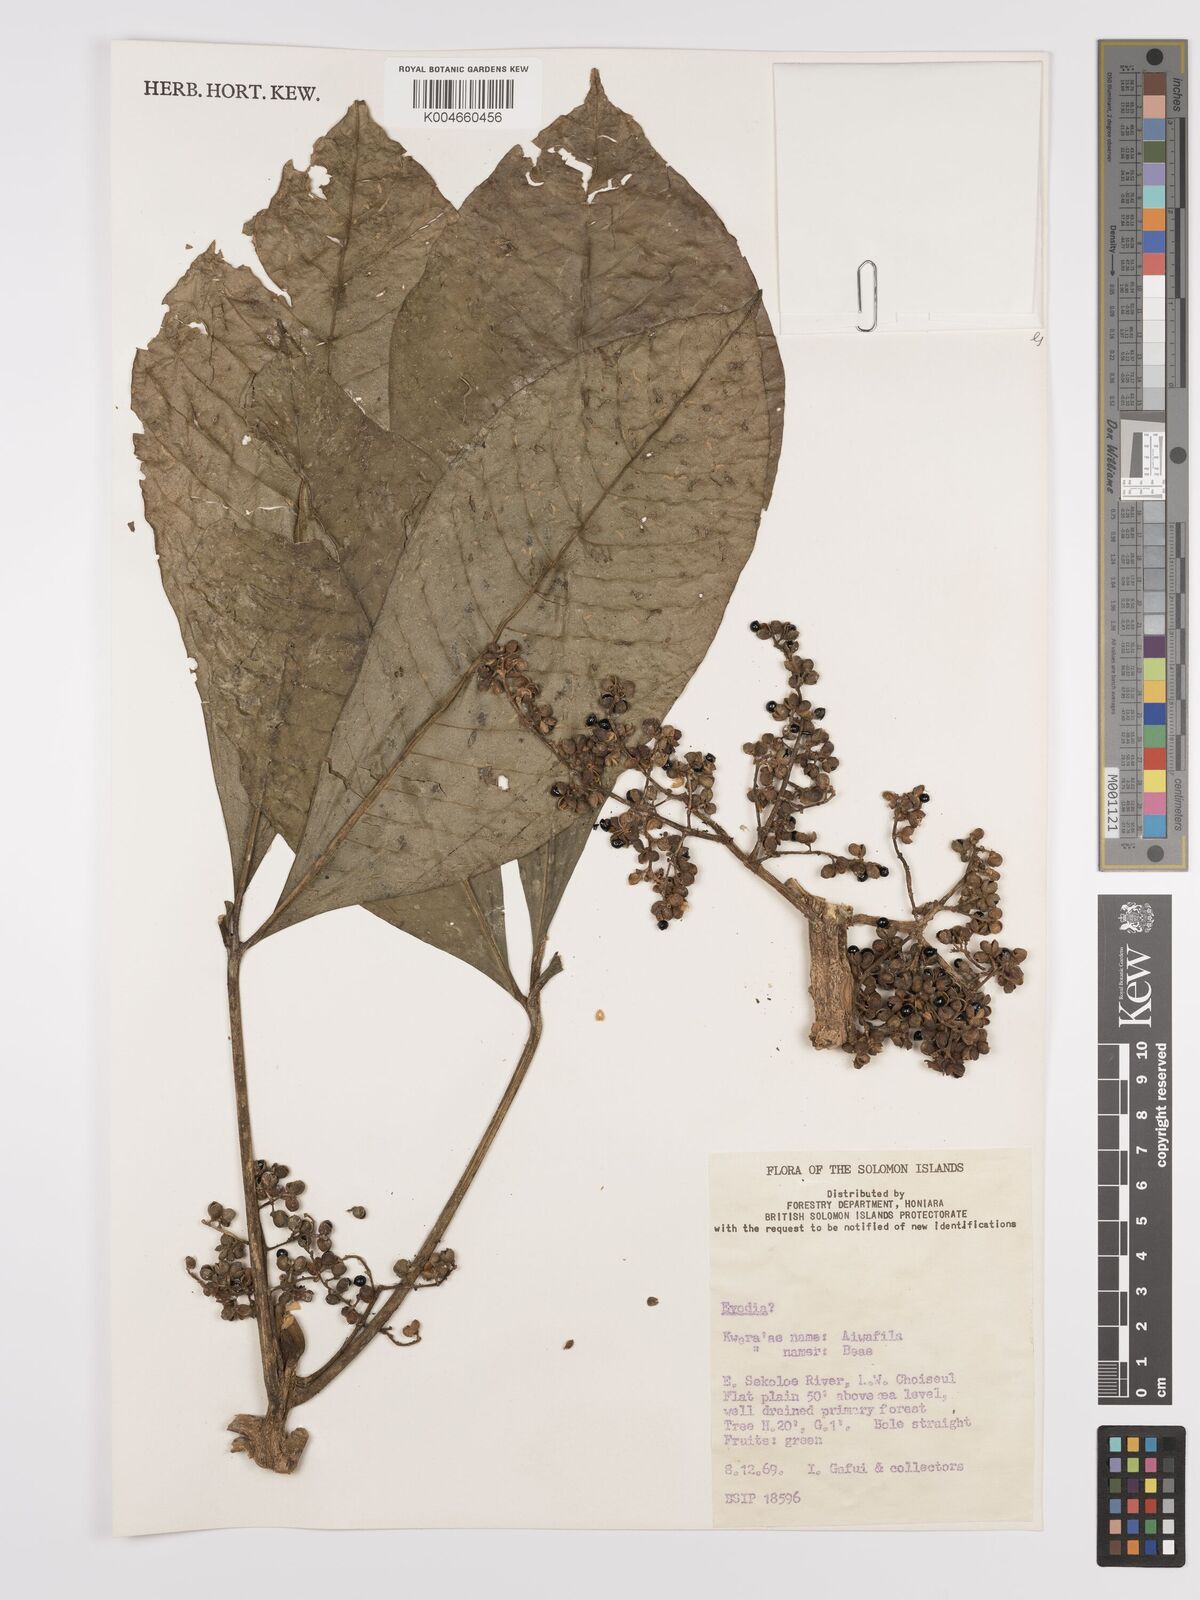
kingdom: Plantae
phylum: Tracheophyta
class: Magnoliopsida
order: Sapindales
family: Rutaceae
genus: Euodia
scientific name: Euodia
